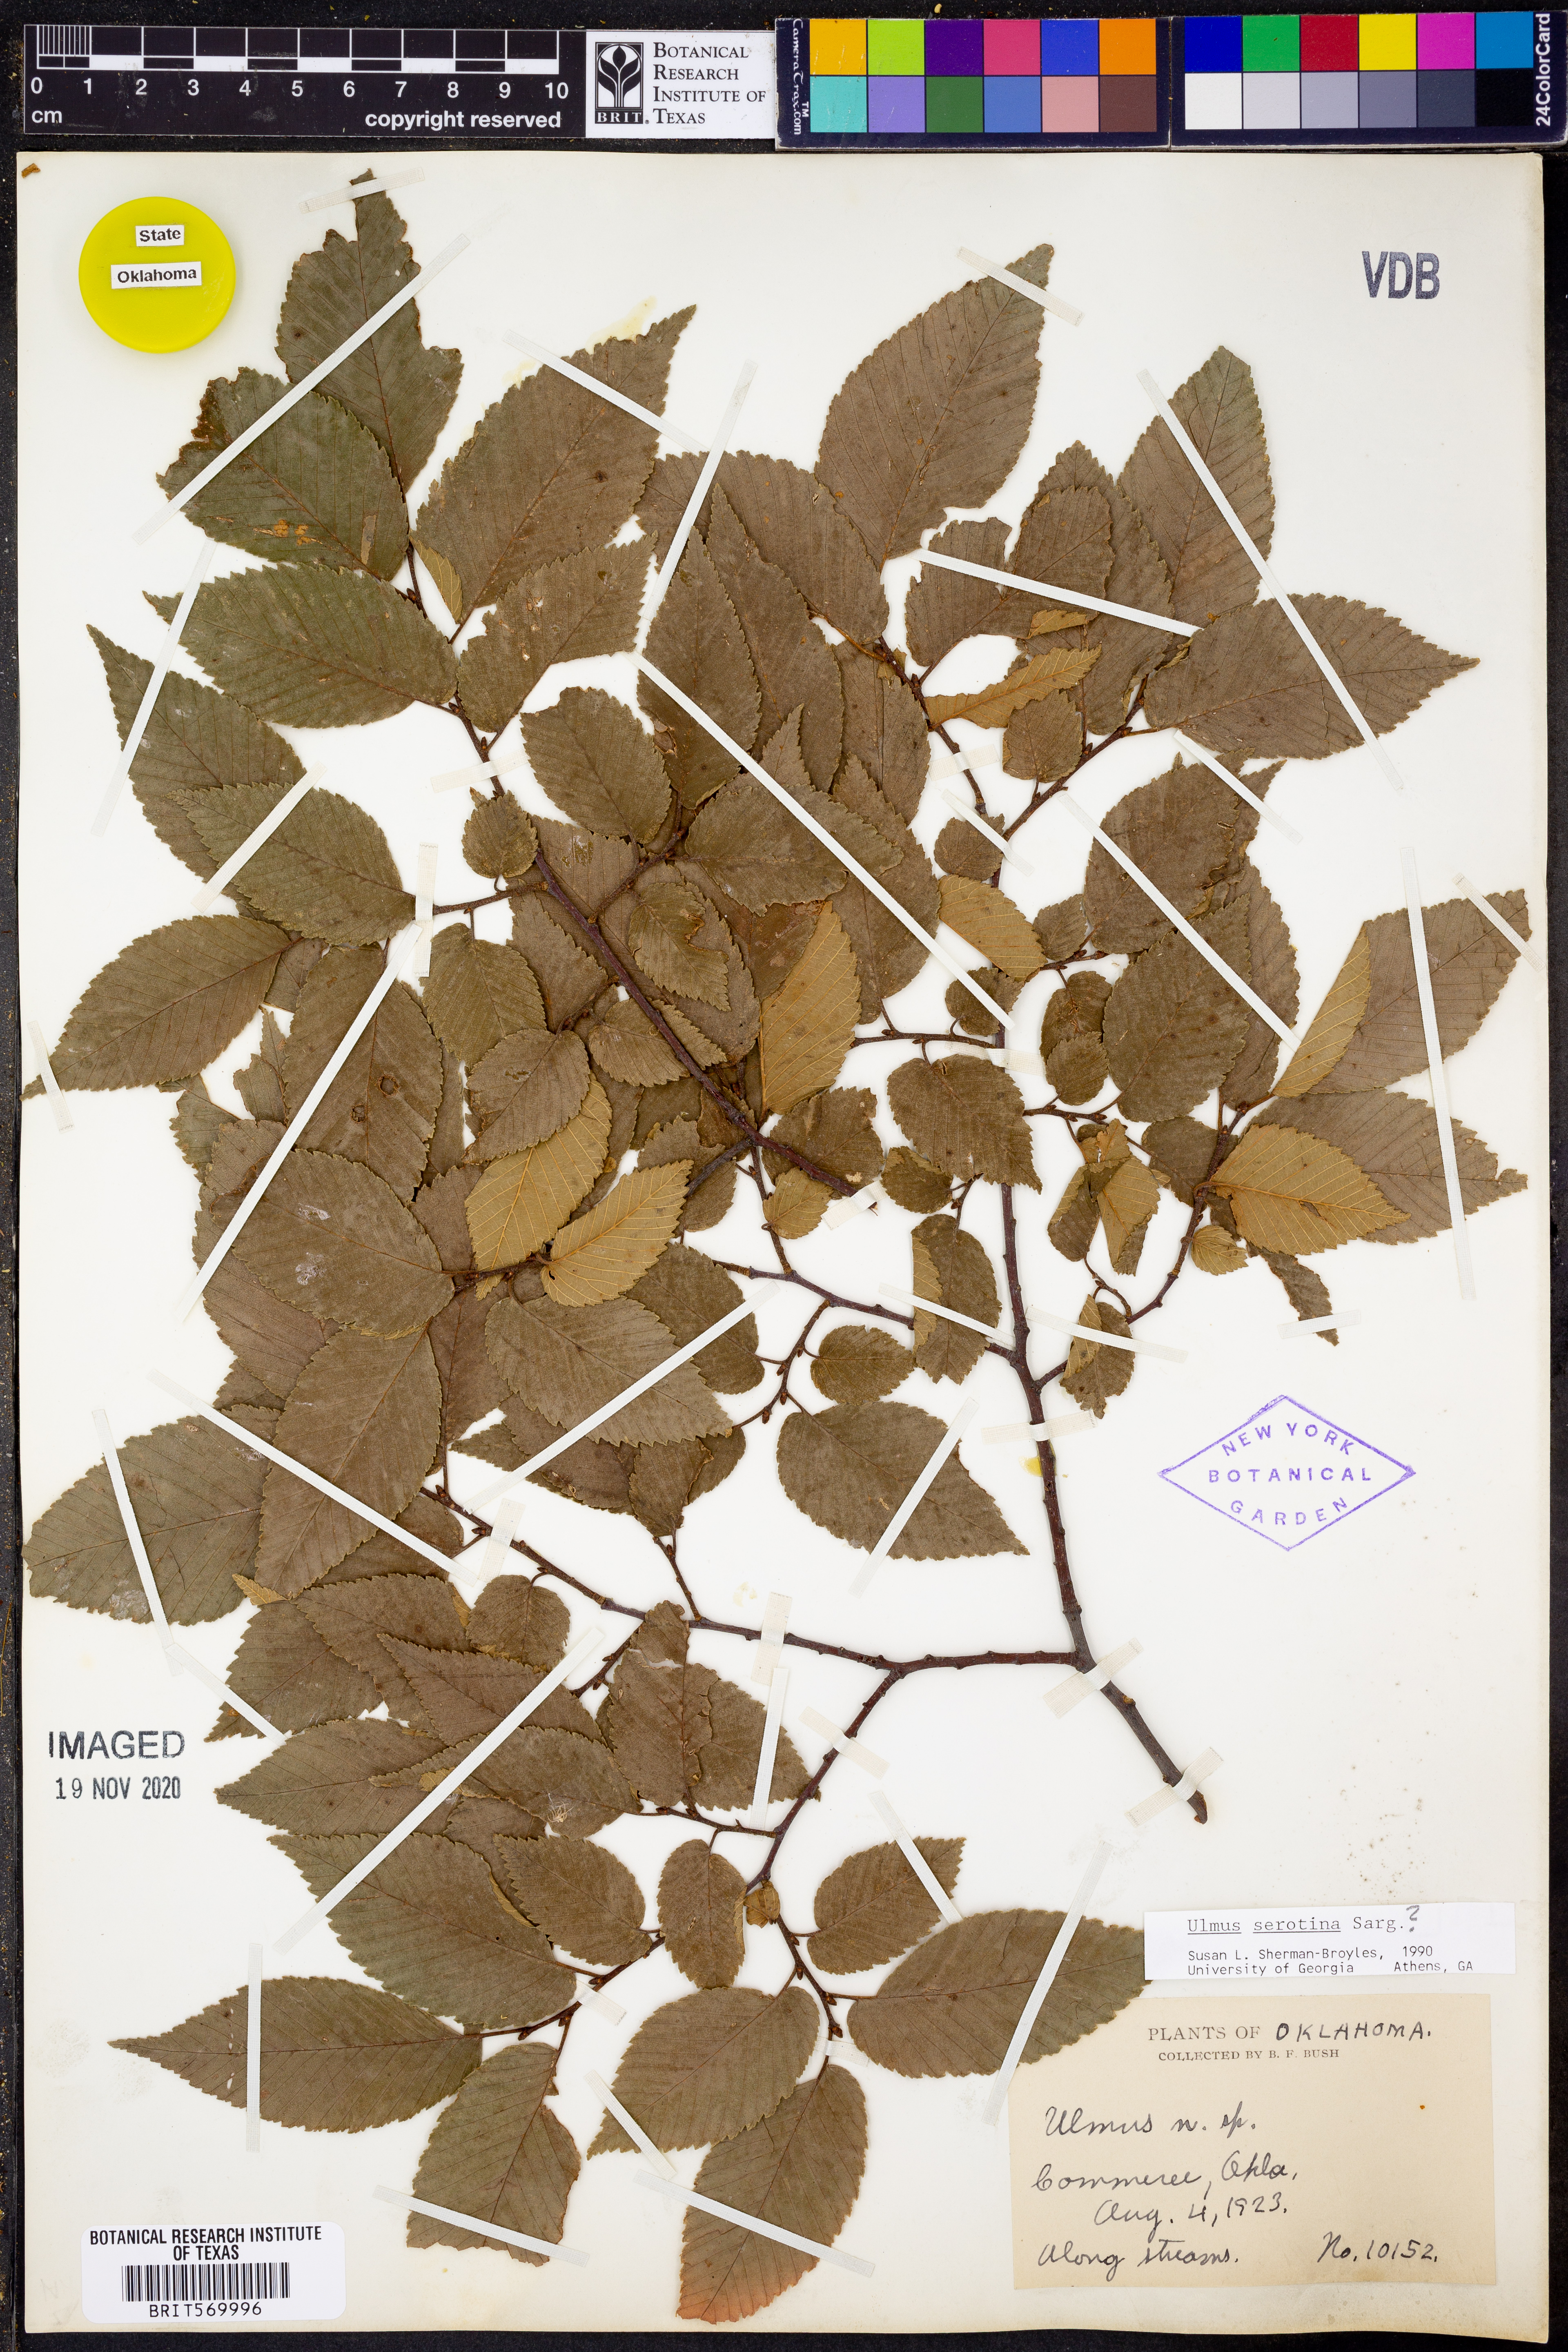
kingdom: Plantae
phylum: Tracheophyta
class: Magnoliopsida
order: Rosales
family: Ulmaceae
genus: Ulmus
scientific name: Ulmus serotina
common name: September elm
